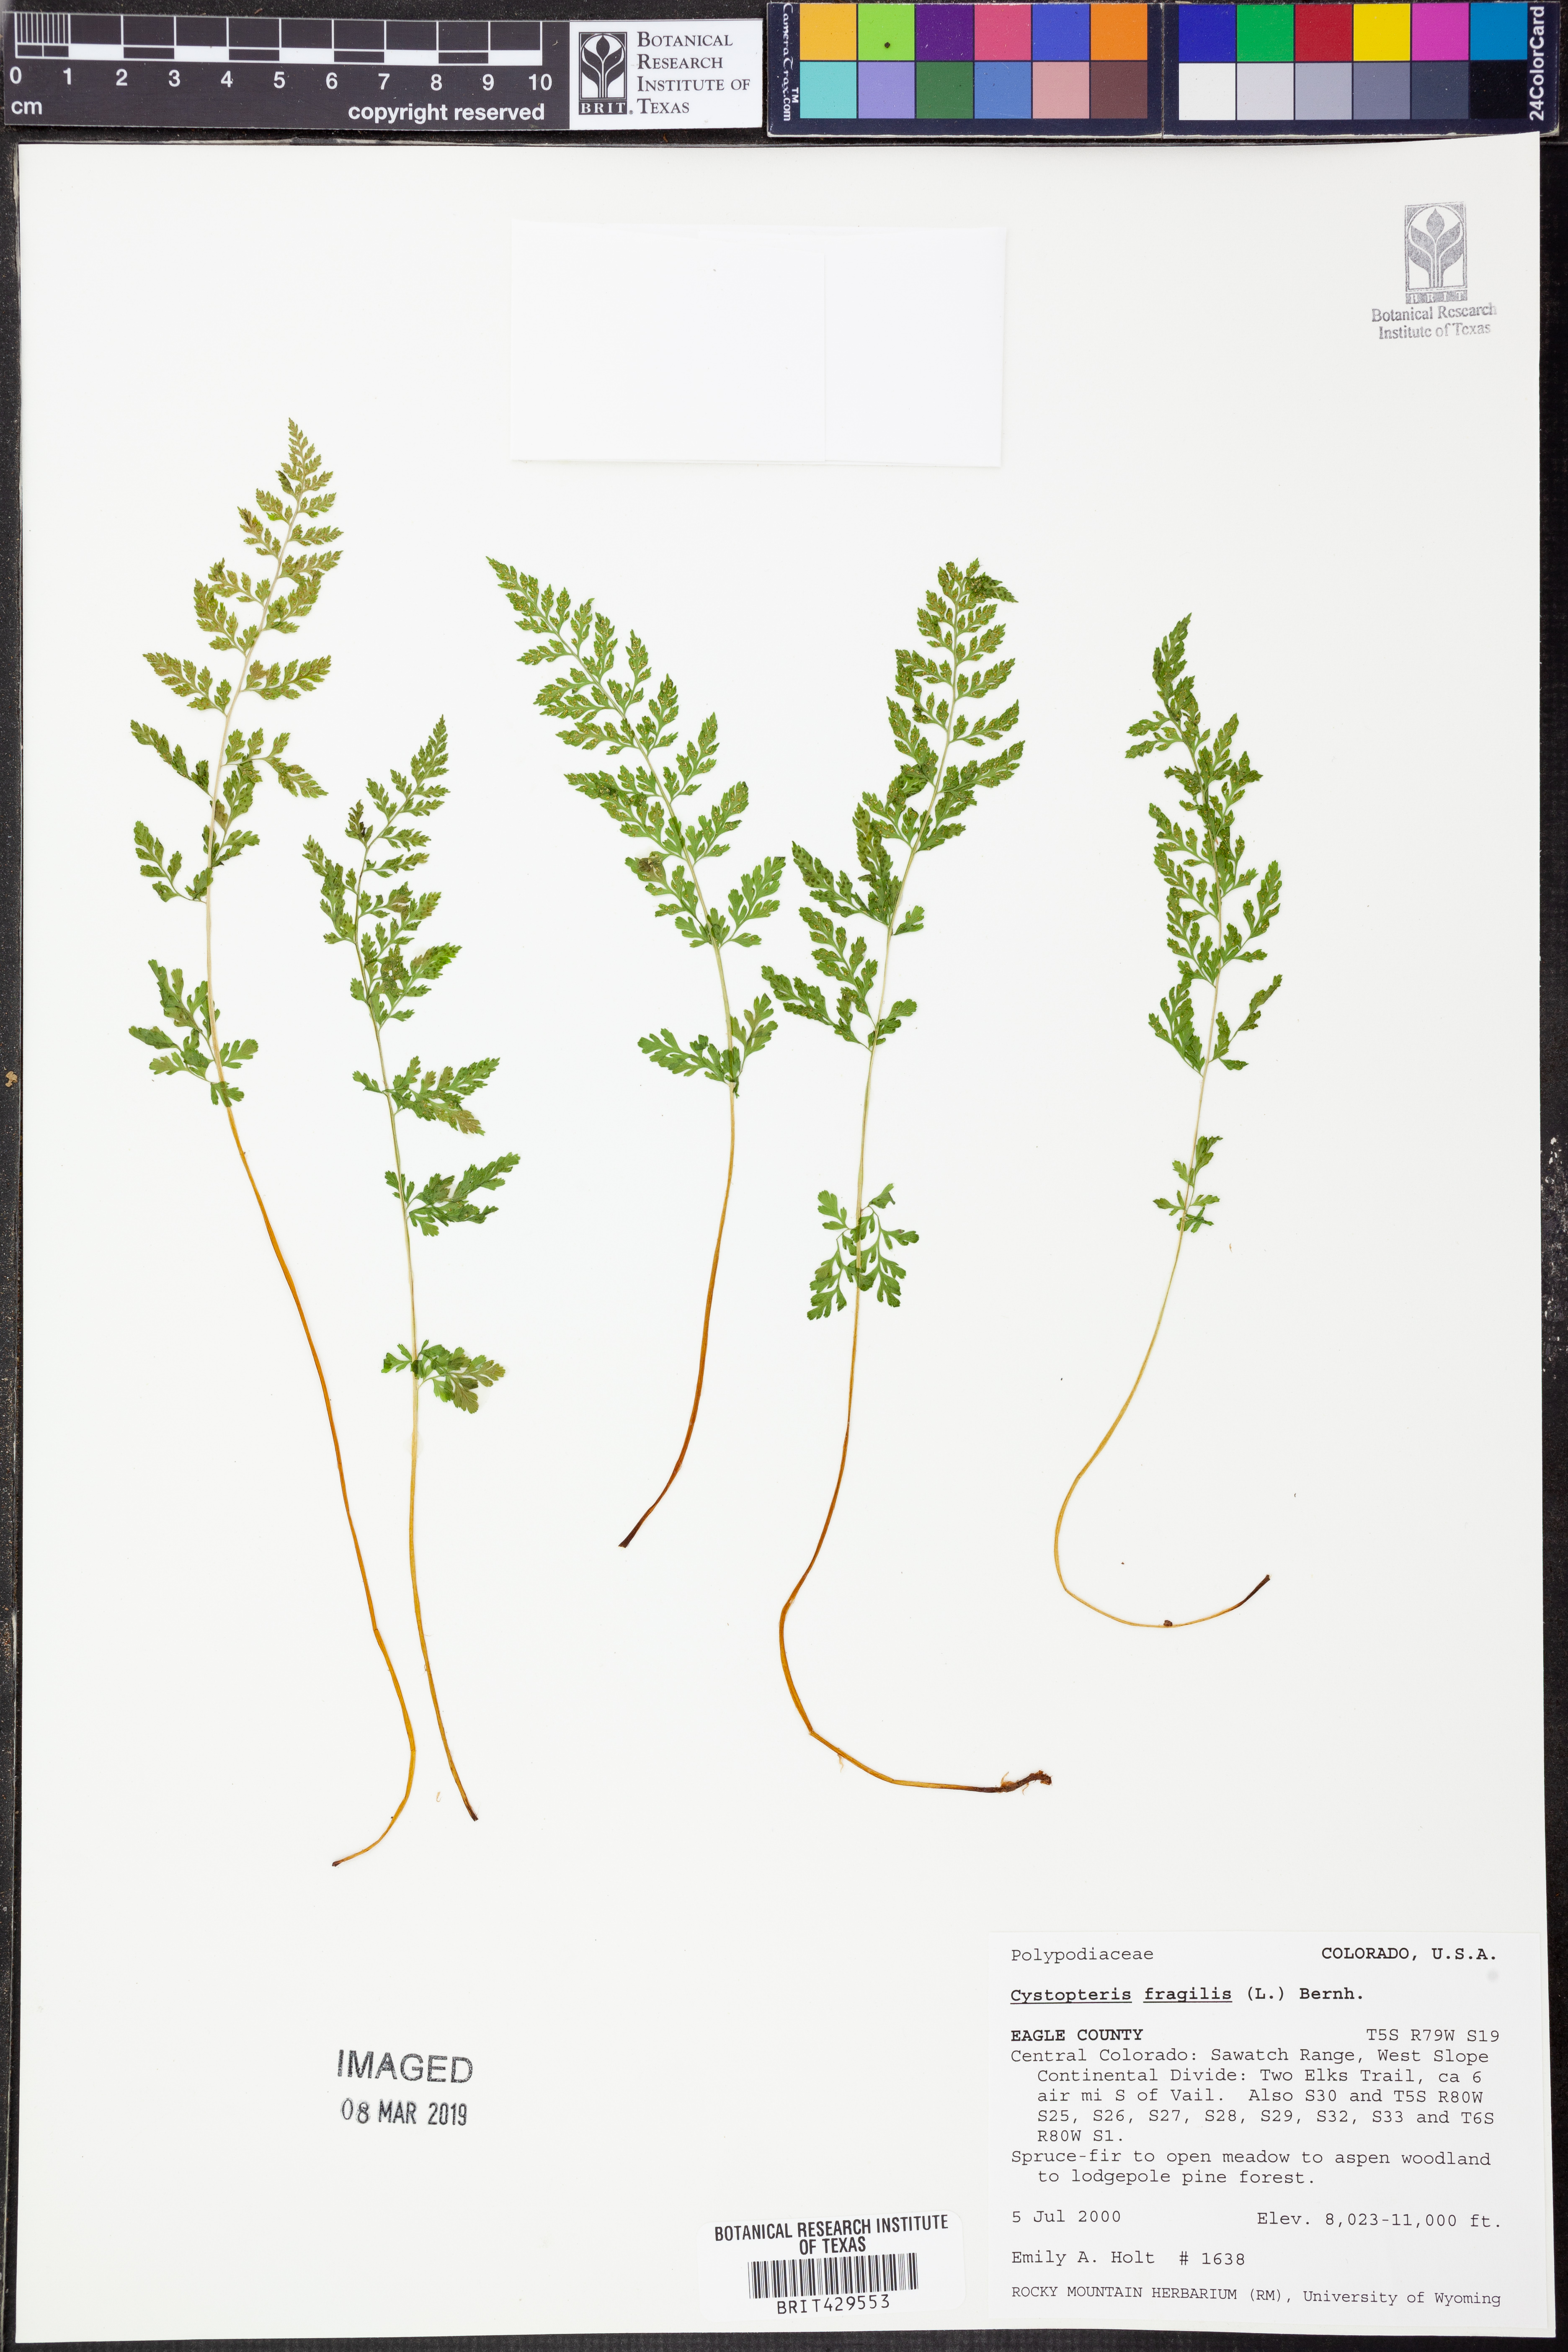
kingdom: Plantae
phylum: Tracheophyta
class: Polypodiopsida
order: Polypodiales
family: Cystopteridaceae
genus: Cystopteris
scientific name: Cystopteris fragilis
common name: Brittle bladder fern
